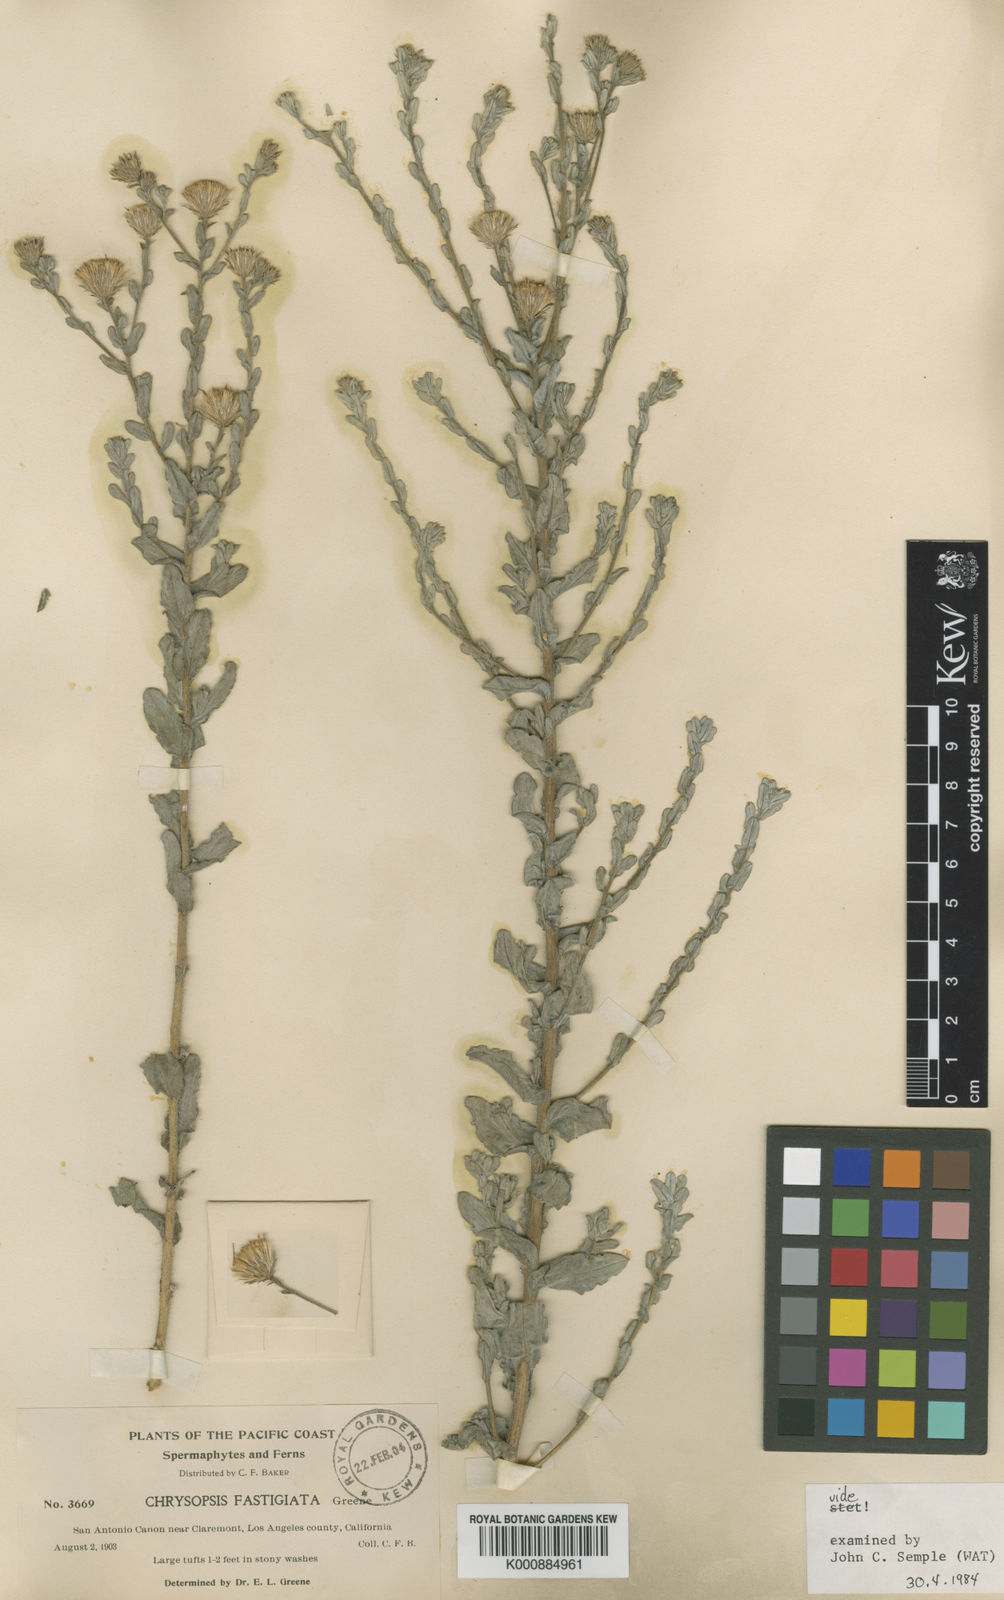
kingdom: Plantae
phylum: Tracheophyta
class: Magnoliopsida
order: Asterales
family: Asteraceae
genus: Heterotheca
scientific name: Heterotheca fastigiata
